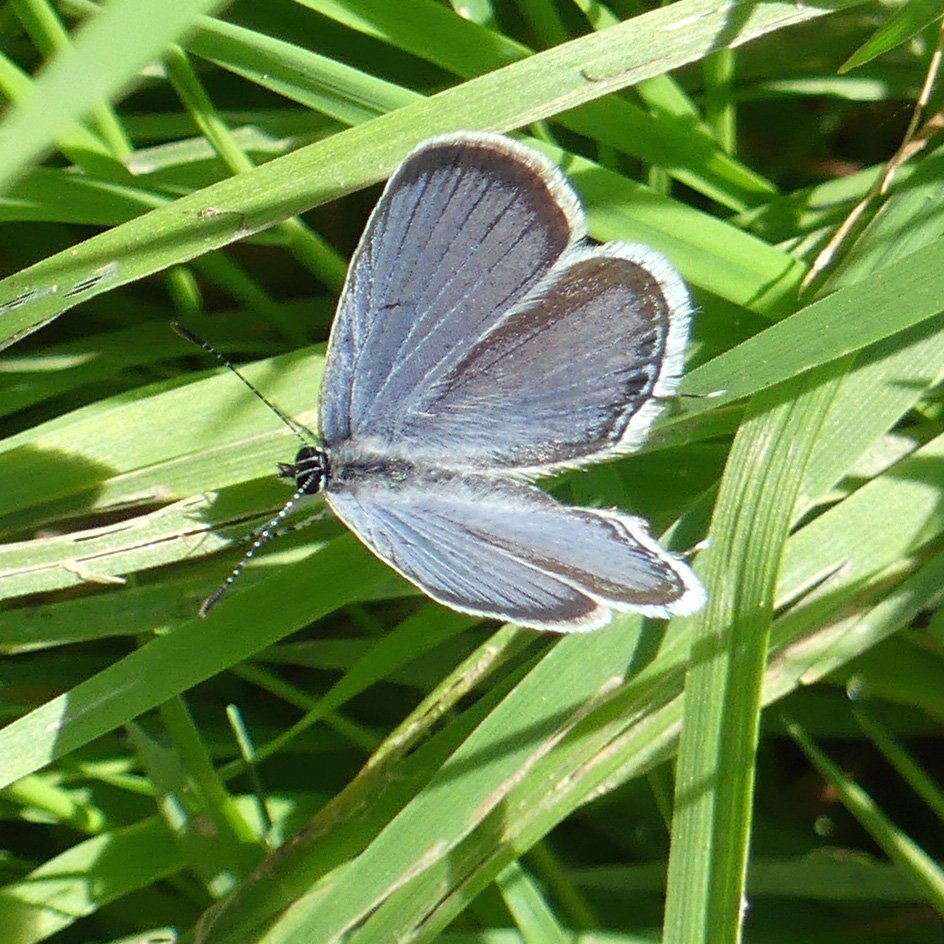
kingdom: Animalia
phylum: Arthropoda
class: Insecta
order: Lepidoptera
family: Lycaenidae
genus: Elkalyce
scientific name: Elkalyce comyntas
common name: Eastern Tailed-Blue
